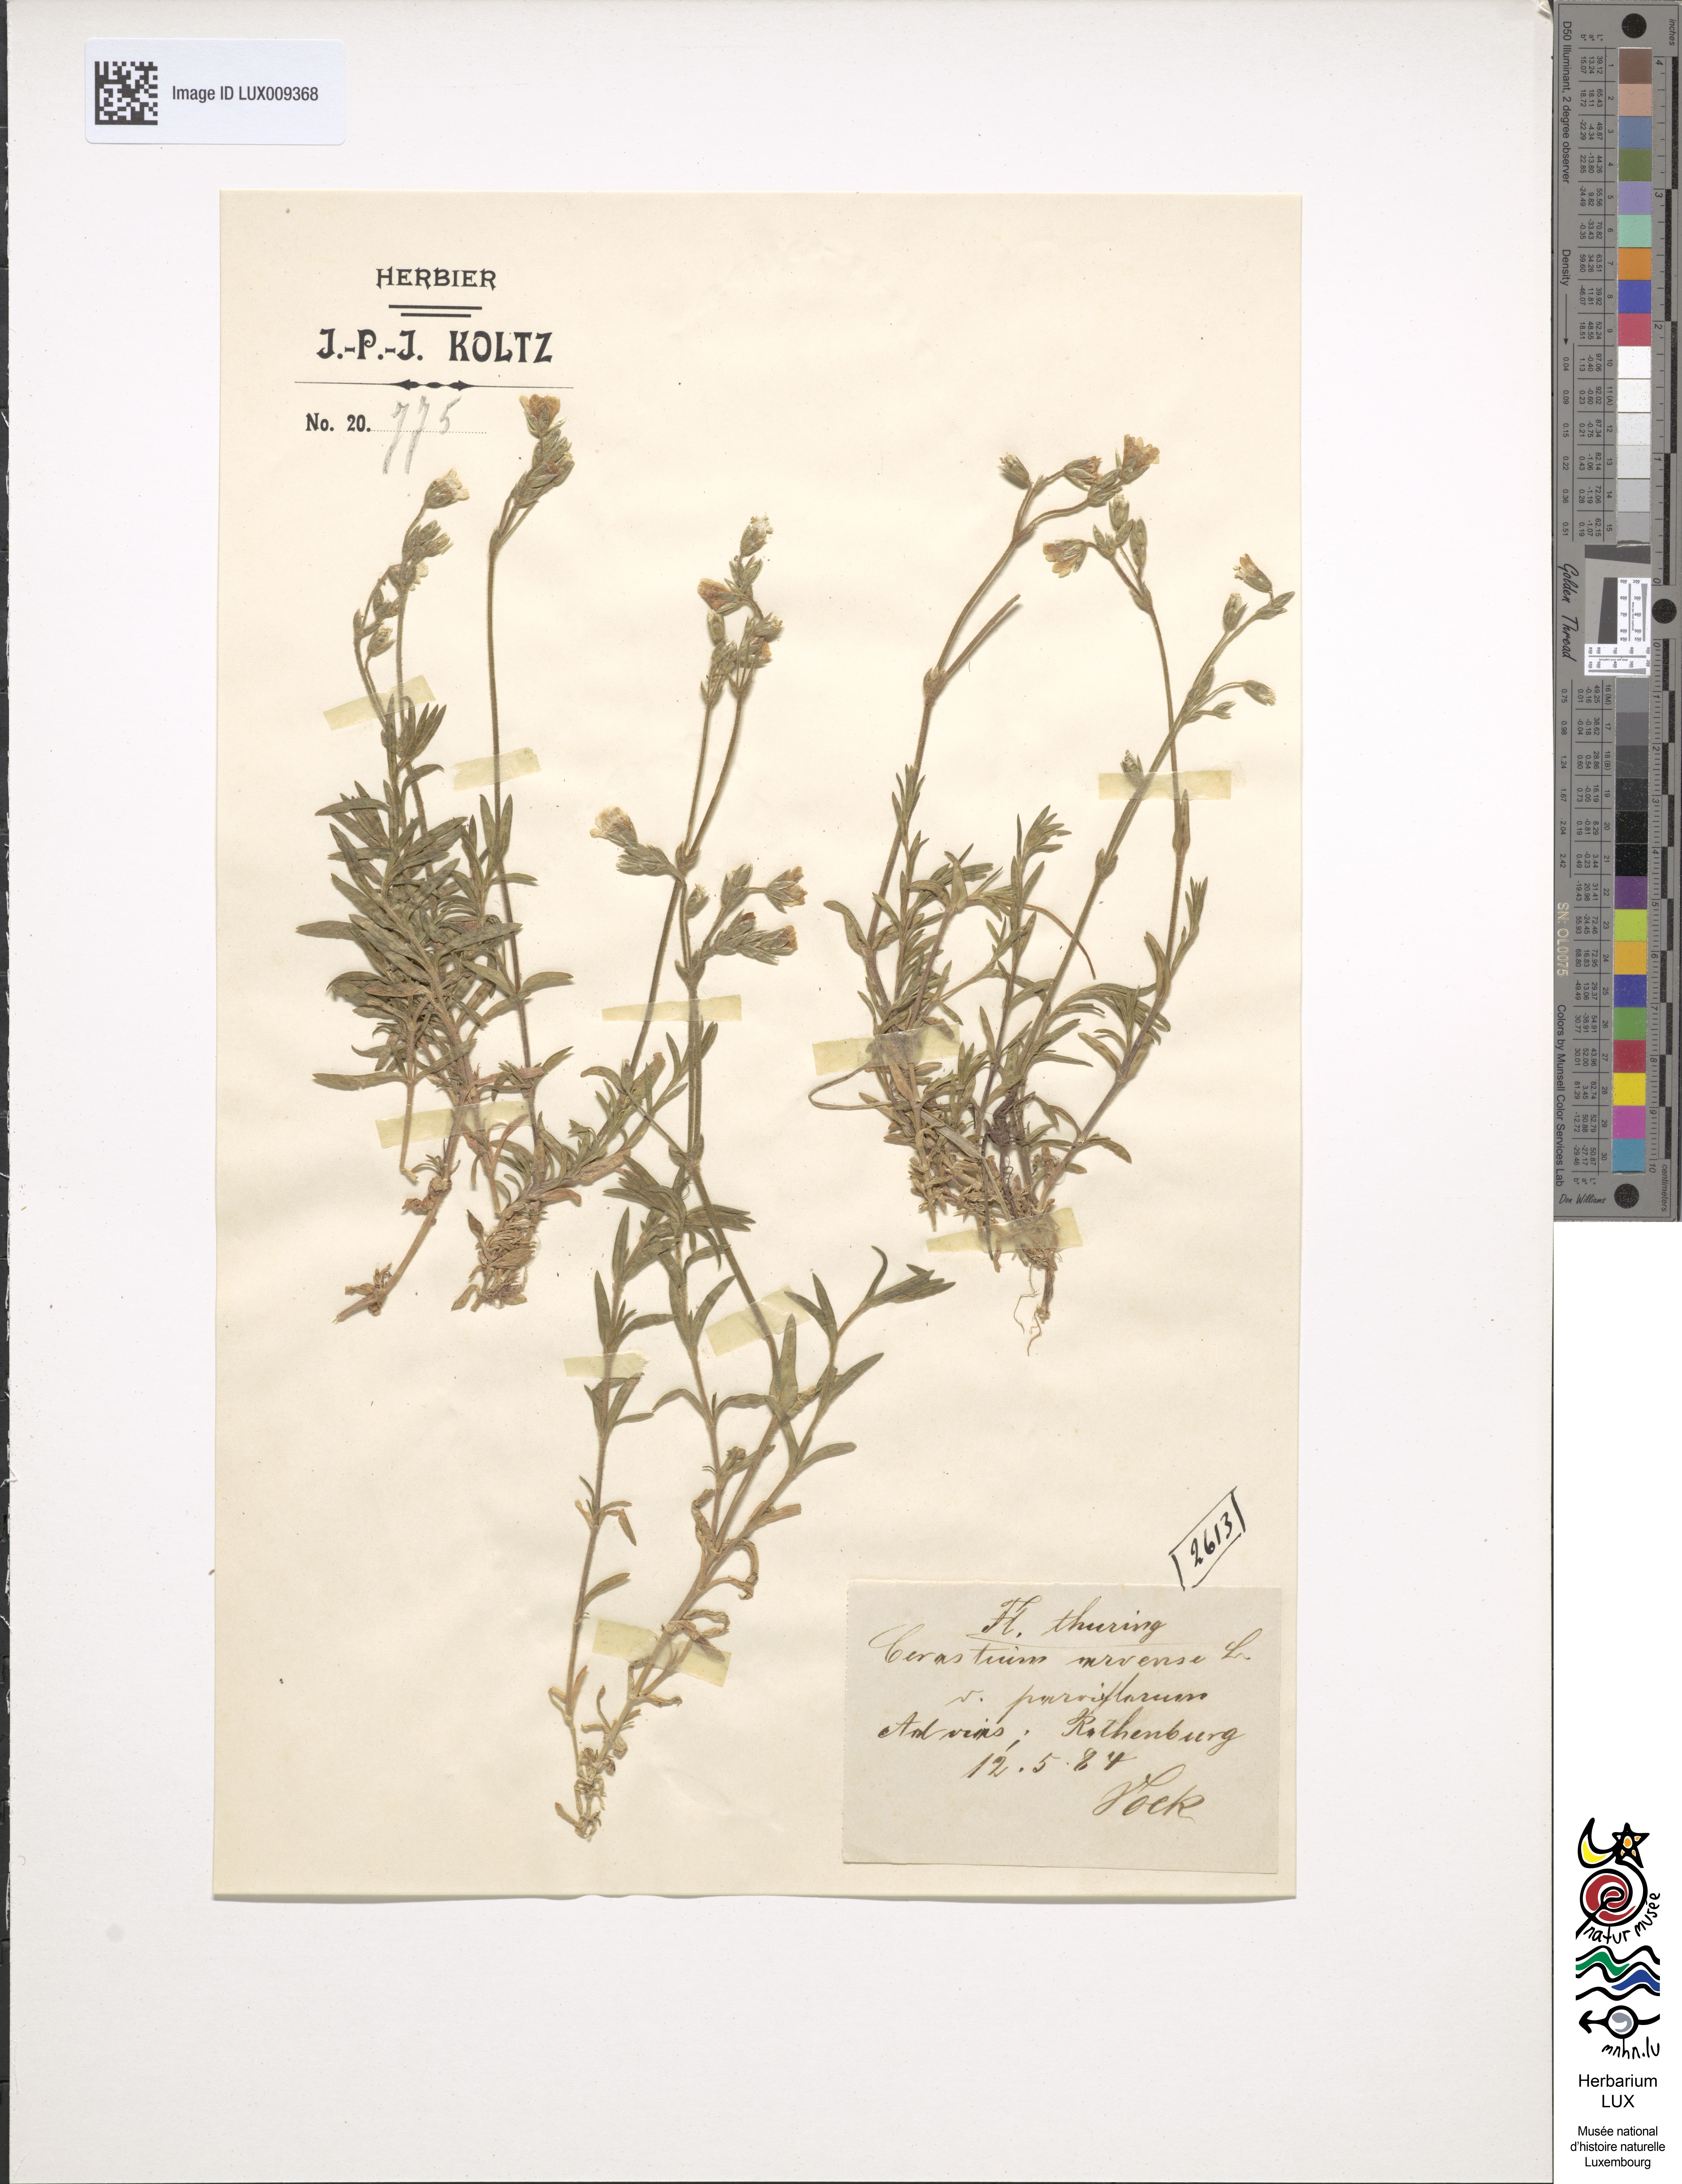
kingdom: Plantae
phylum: Tracheophyta
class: Magnoliopsida
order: Caryophyllales
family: Caryophyllaceae
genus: Cerastium
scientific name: Cerastium fuegianum
